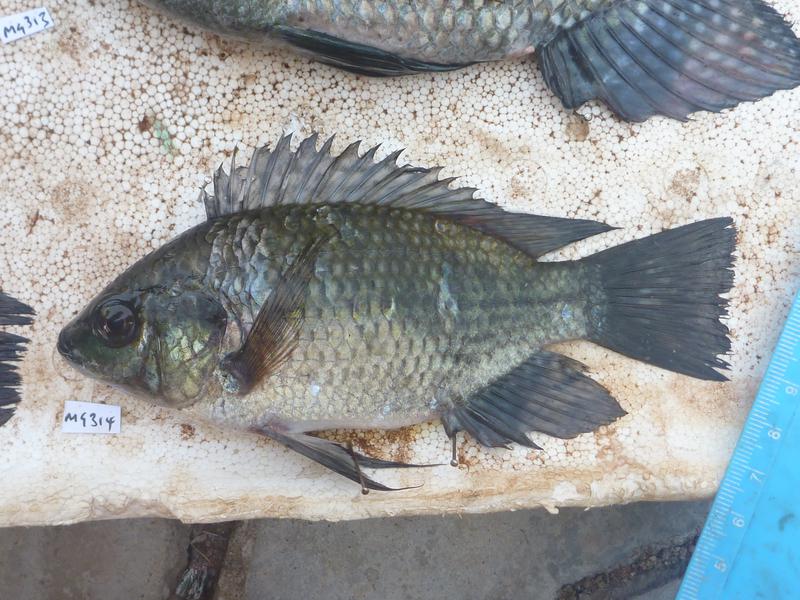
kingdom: Animalia
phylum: Chordata
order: Perciformes
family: Cichlidae
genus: Oreochromis
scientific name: Oreochromis leucostictus
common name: Blue spotted tilapia
